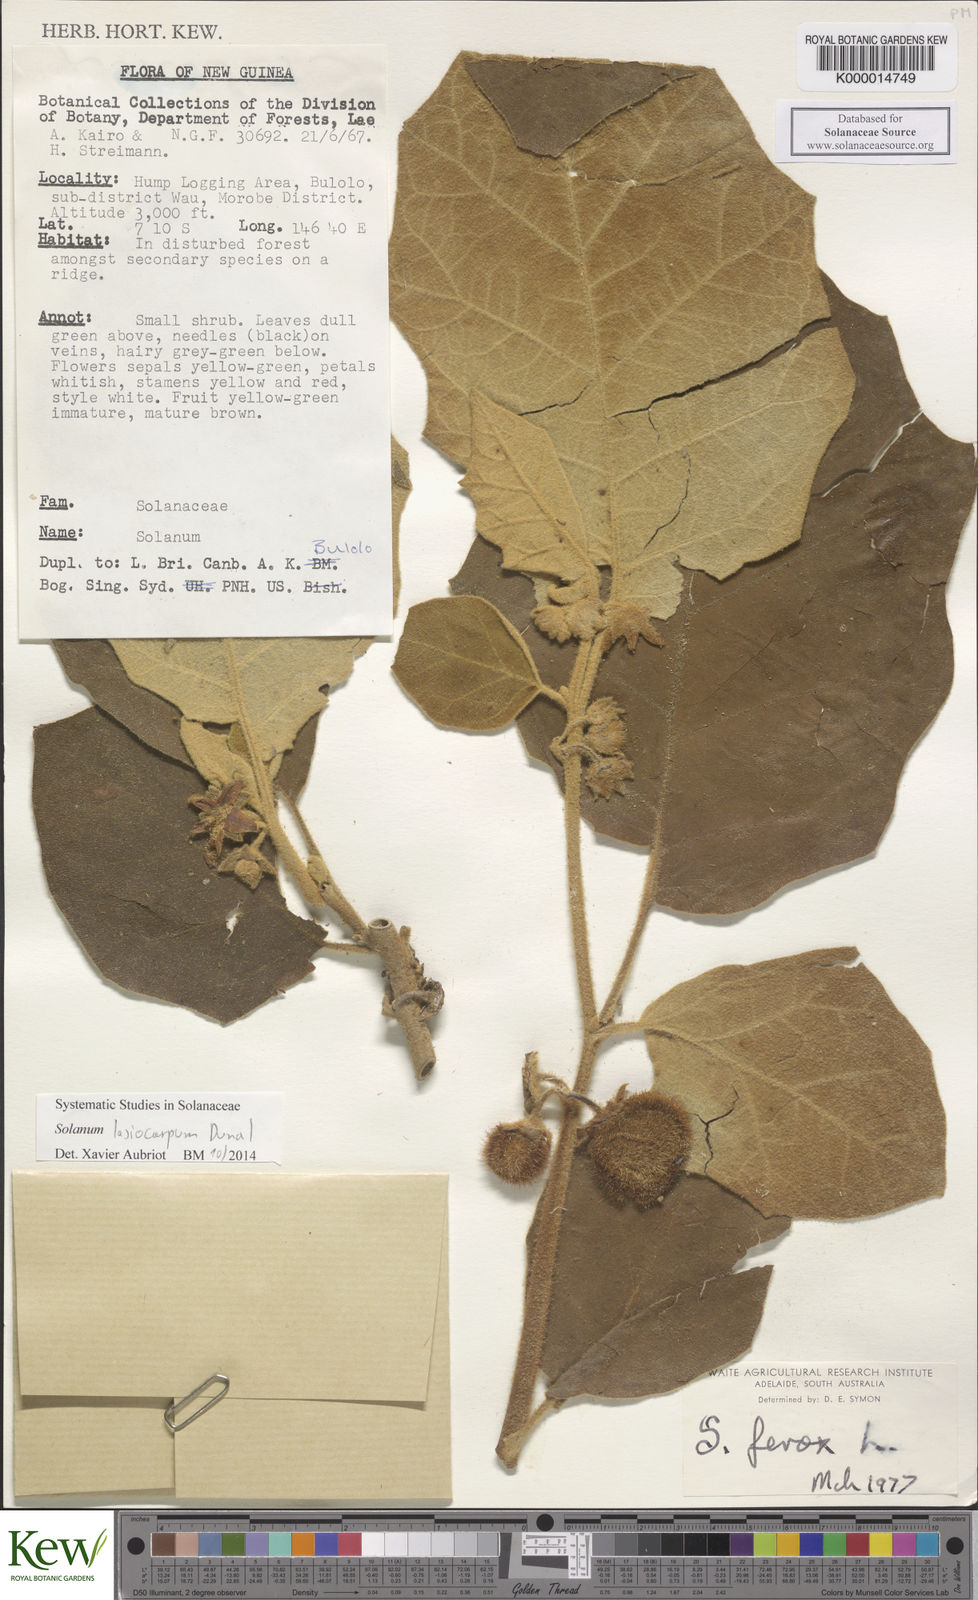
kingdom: Plantae
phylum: Tracheophyta
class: Magnoliopsida
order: Solanales
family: Solanaceae
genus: Solanum
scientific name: Solanum lasiocarpum
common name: Indian nightshade
